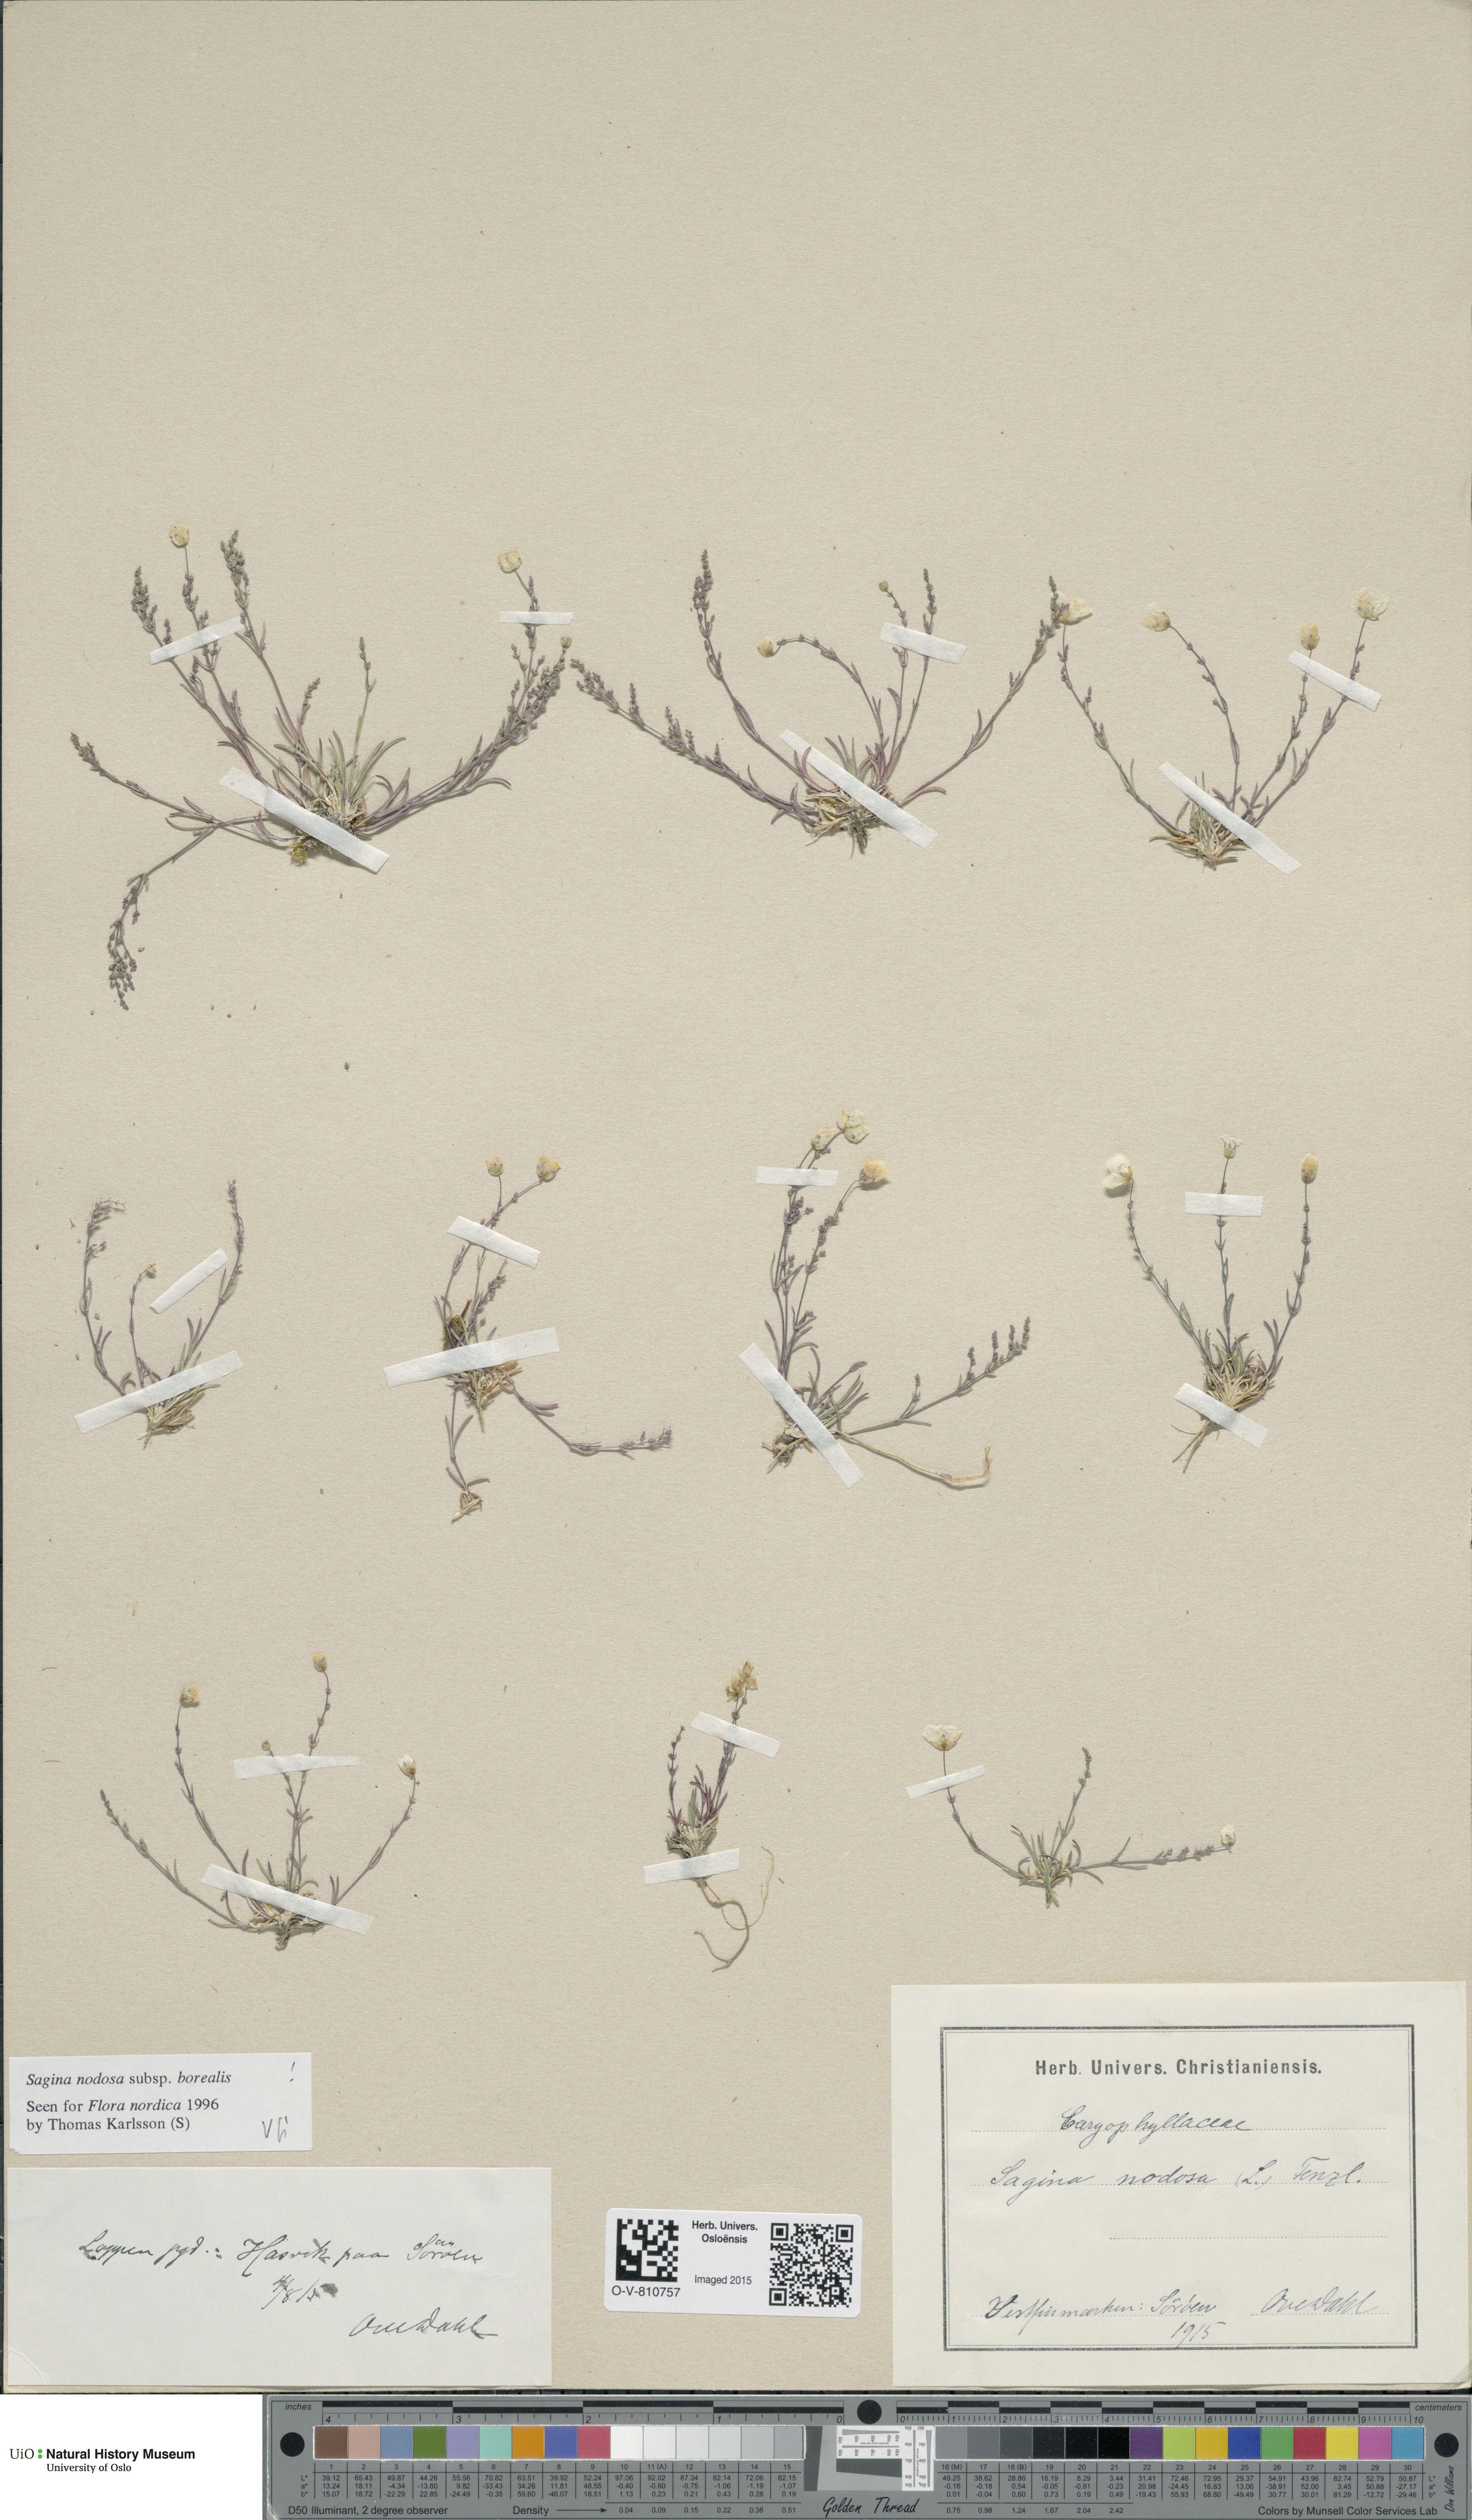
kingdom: Plantae
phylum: Tracheophyta
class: Magnoliopsida
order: Caryophyllales
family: Caryophyllaceae
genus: Sagina
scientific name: Sagina nodosa
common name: Knotted pearlwort
